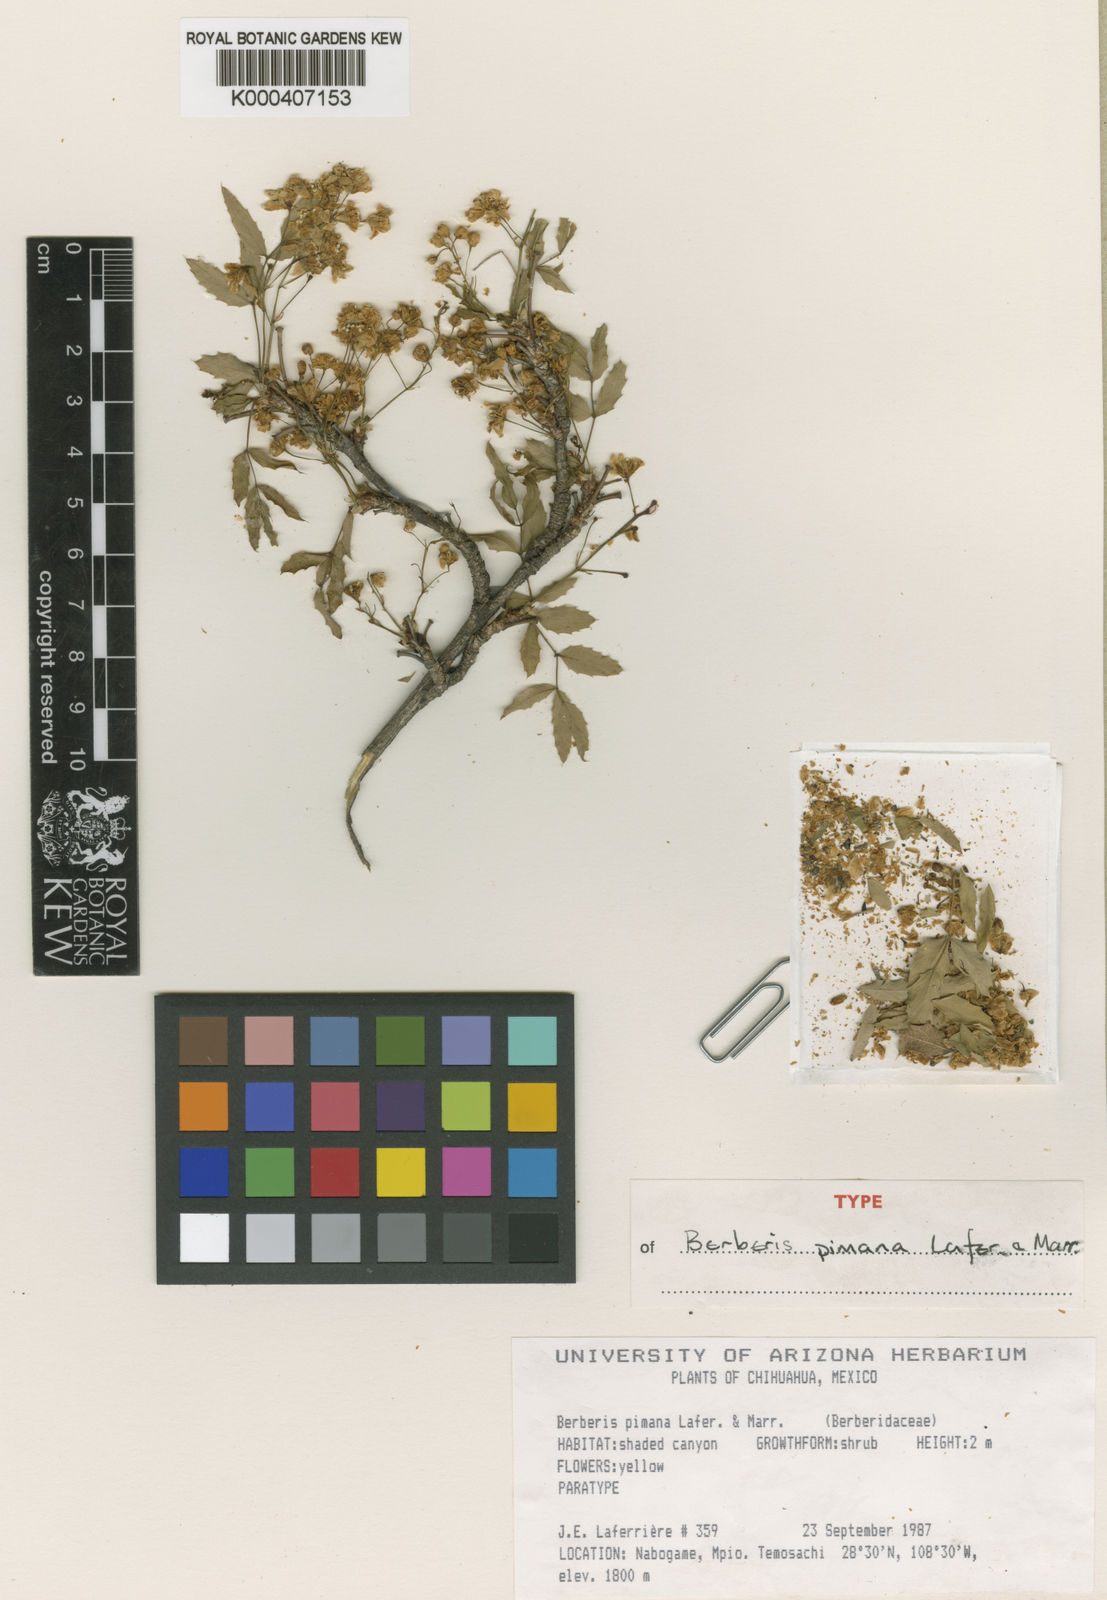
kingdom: Plantae
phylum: Tracheophyta
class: Magnoliopsida
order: Ranunculales
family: Berberidaceae
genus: Berberis
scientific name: Berberis
